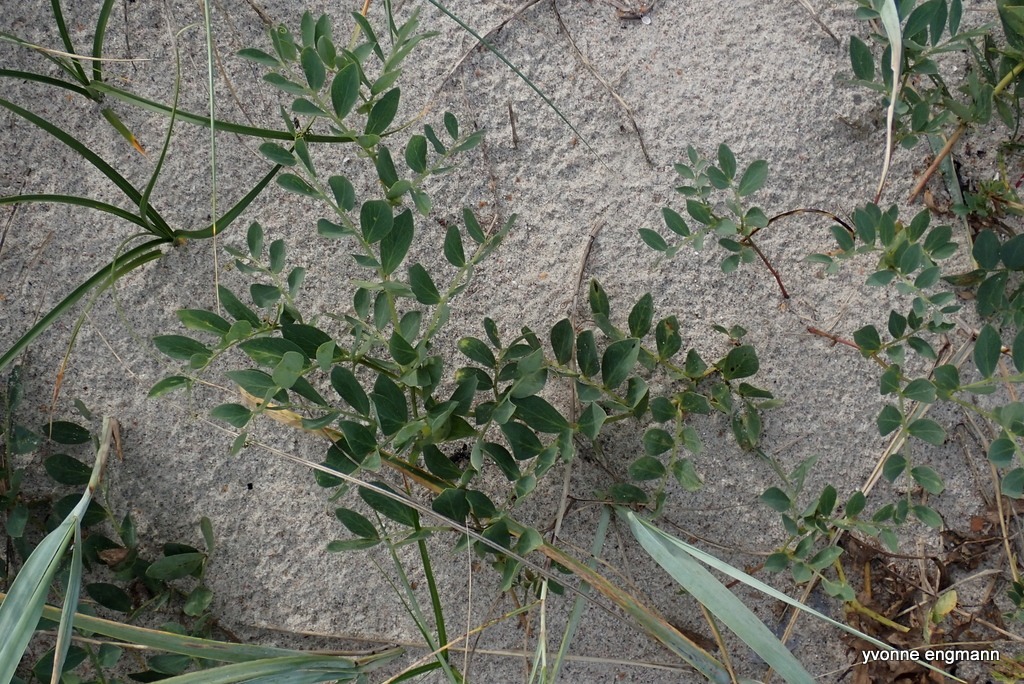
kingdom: Plantae
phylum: Tracheophyta
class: Magnoliopsida
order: Fabales
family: Fabaceae
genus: Lathyrus
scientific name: Lathyrus japonicus
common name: Strand-fladbælg
